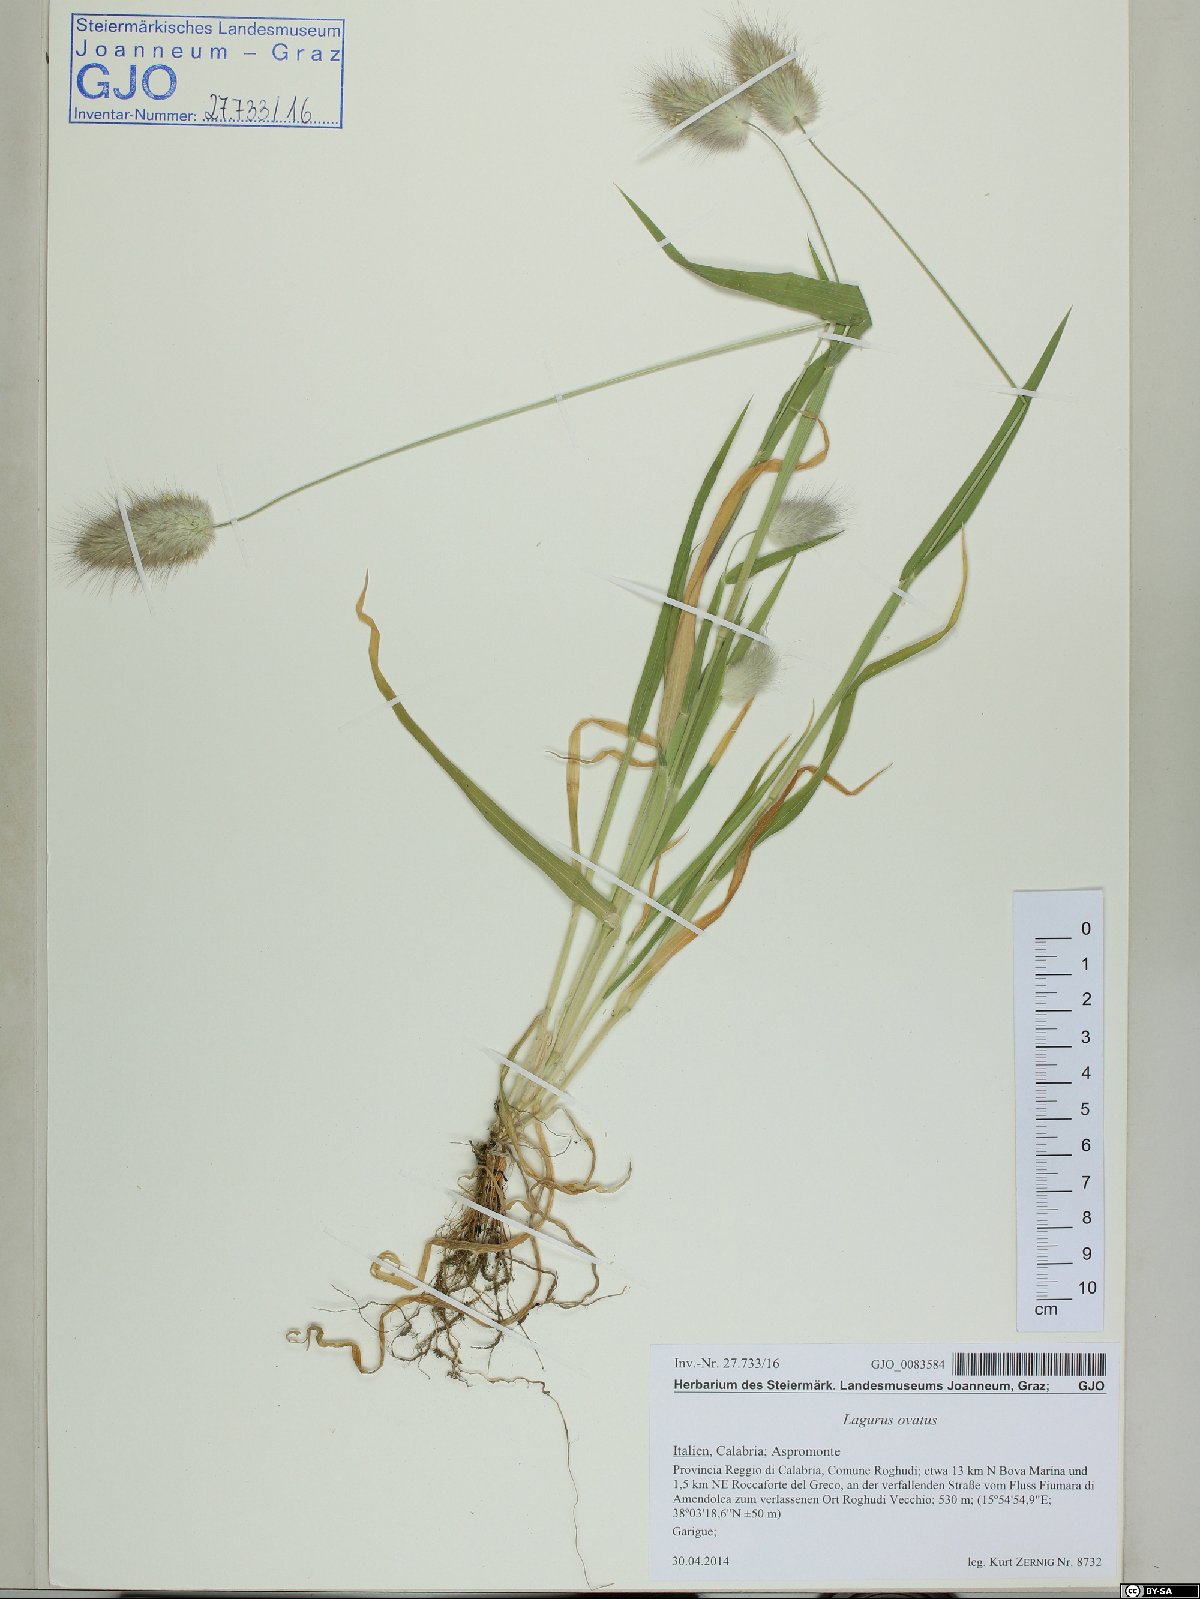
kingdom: Plantae
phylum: Tracheophyta
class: Liliopsida
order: Poales
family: Poaceae
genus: Lagurus
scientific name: Lagurus ovatus
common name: Hare's-tail
